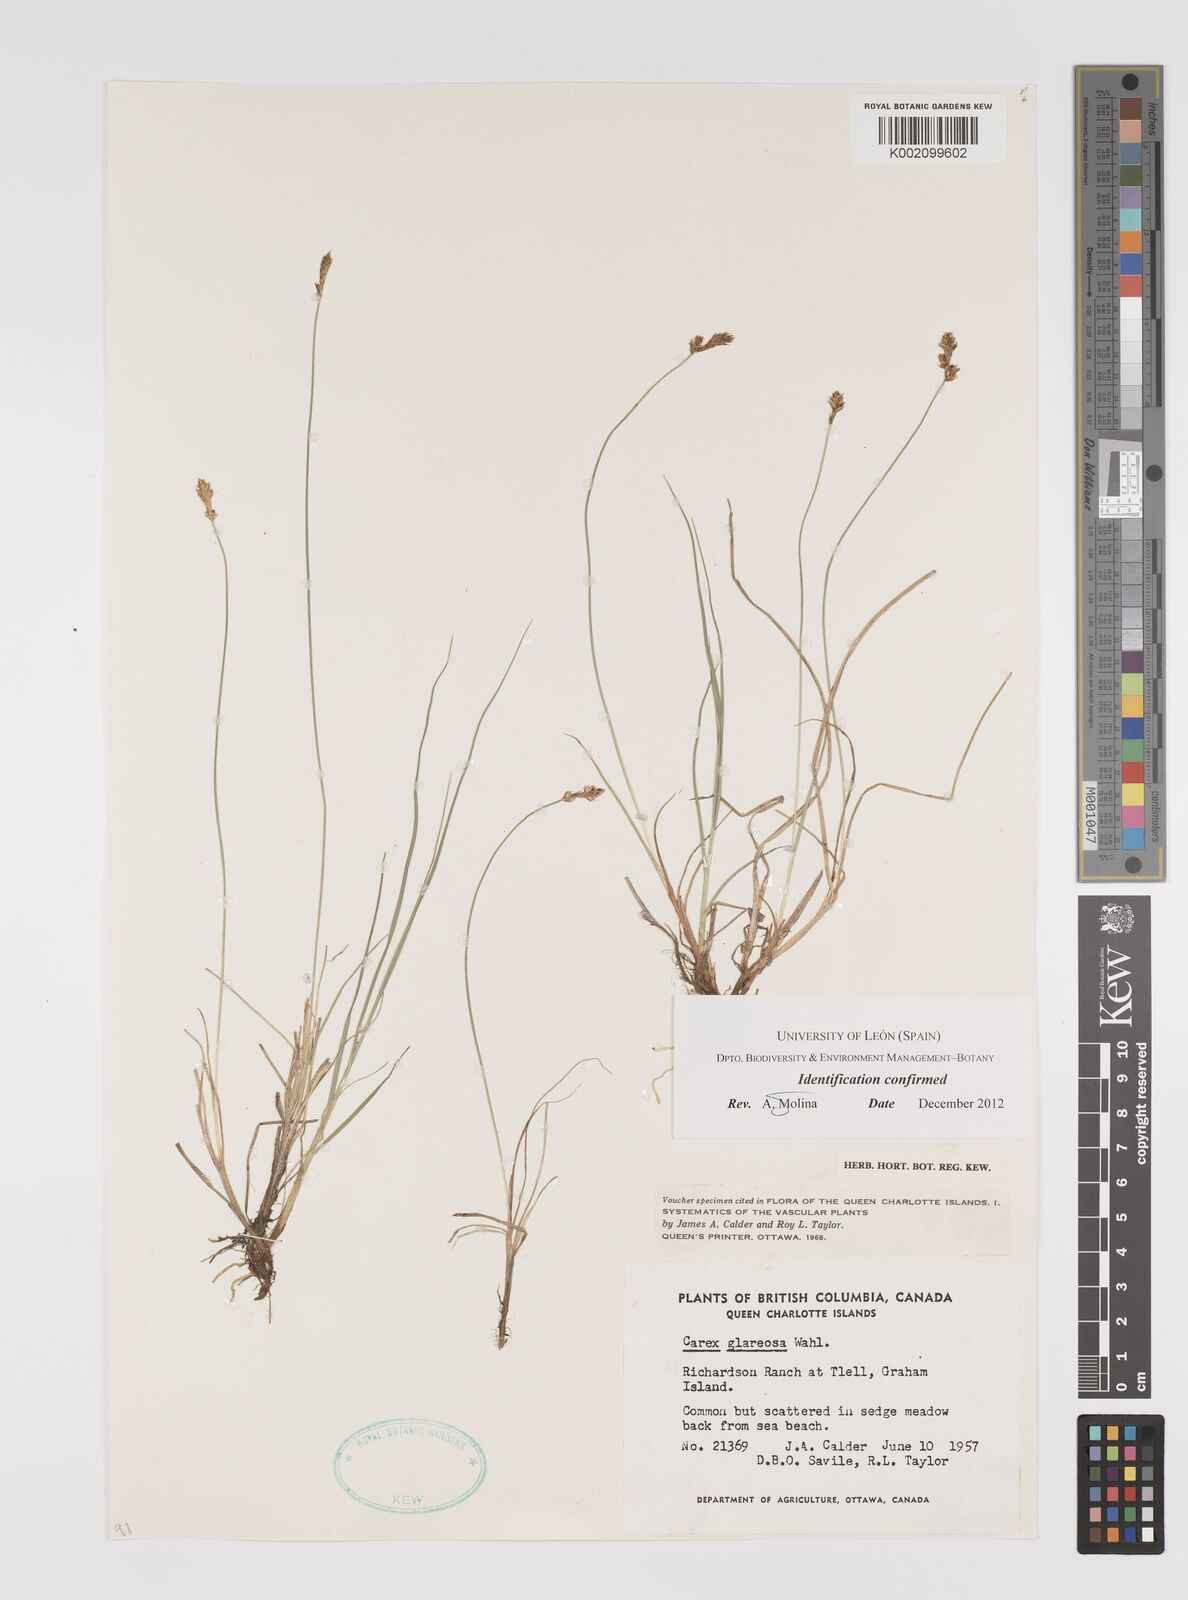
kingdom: Plantae
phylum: Tracheophyta
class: Liliopsida
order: Poales
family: Cyperaceae
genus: Carex
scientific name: Carex glareosa
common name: Clustered sedge
